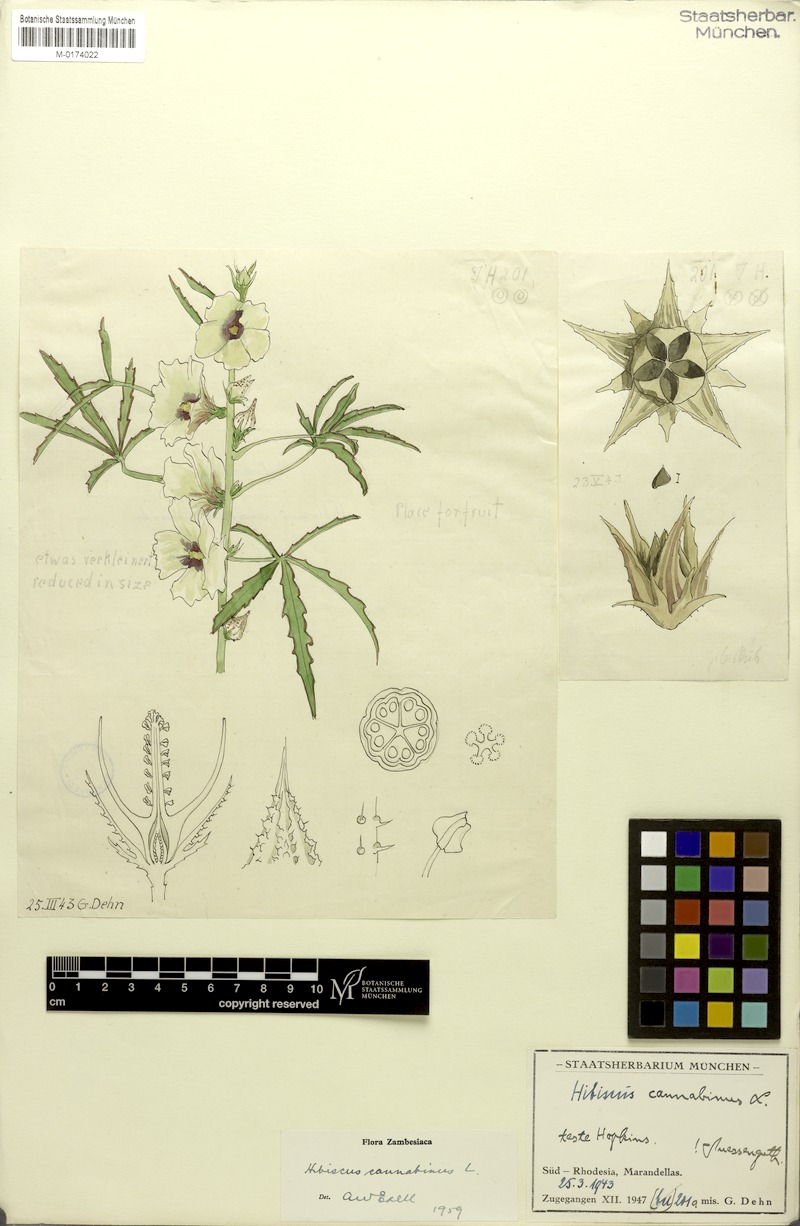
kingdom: Plantae
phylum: Tracheophyta
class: Magnoliopsida
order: Malvales
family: Malvaceae
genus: Hibiscus
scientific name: Hibiscus cannabinus
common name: Brown indianhemp
